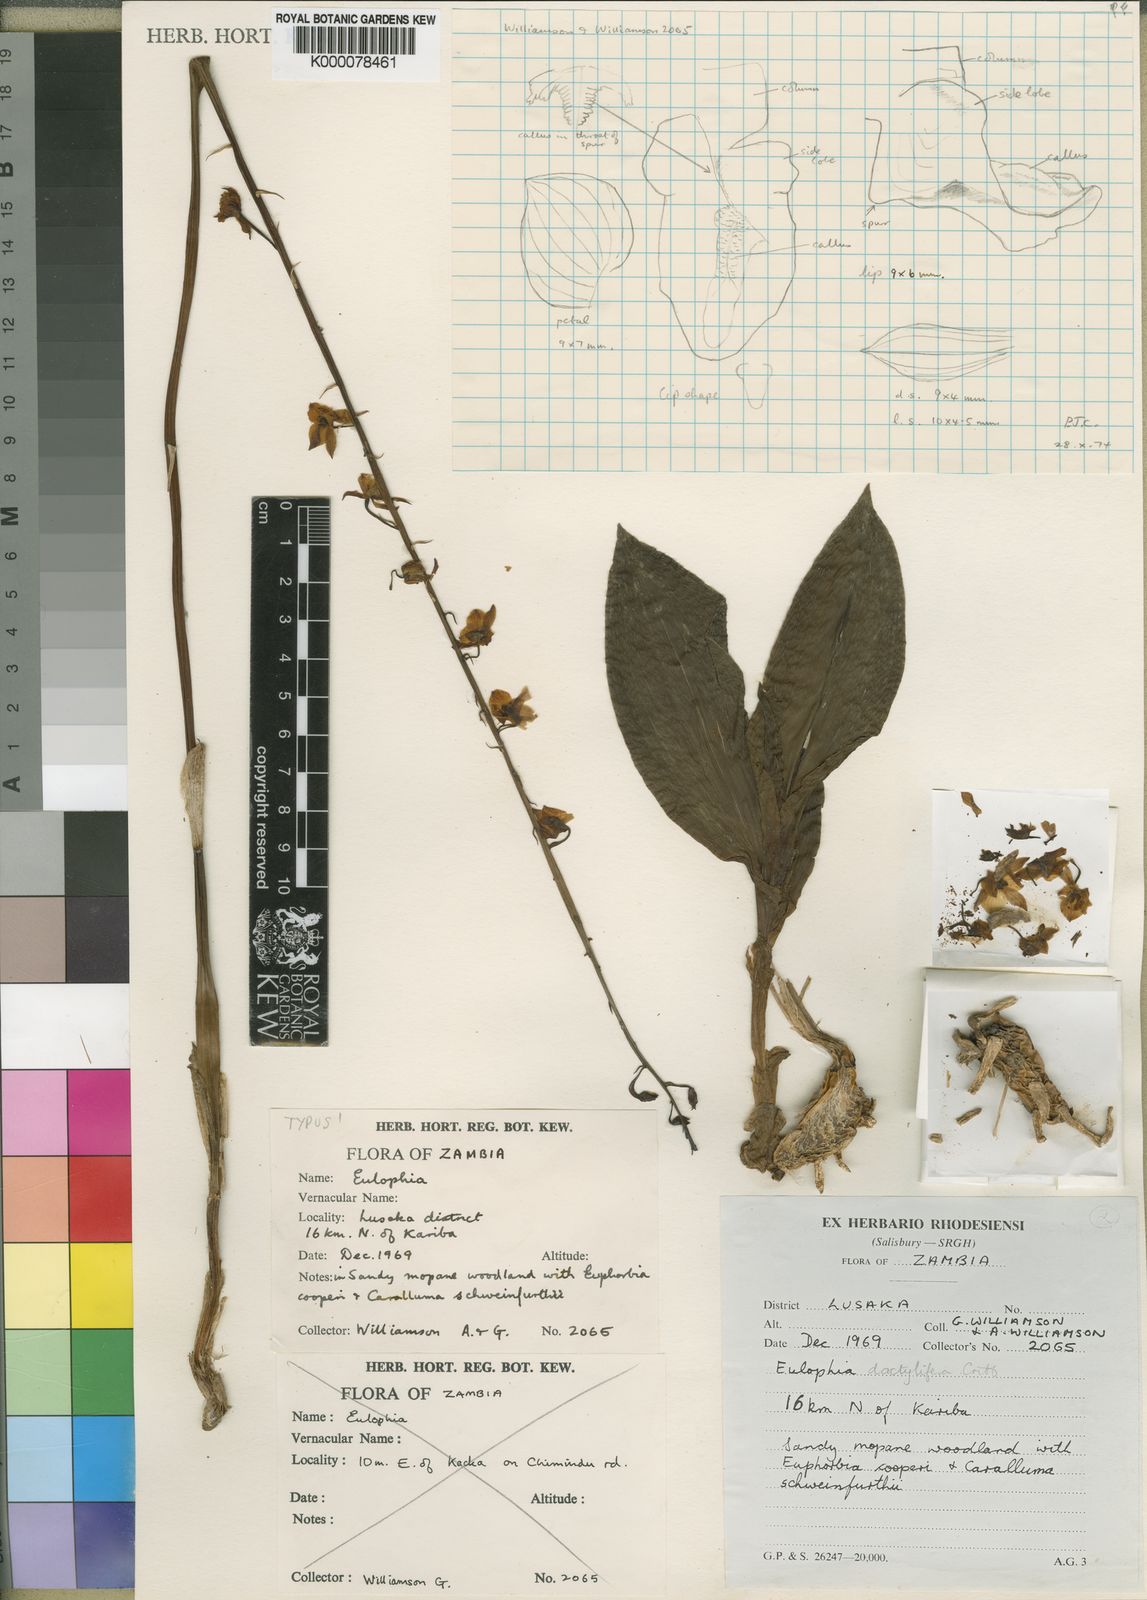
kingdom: Plantae
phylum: Tracheophyta
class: Liliopsida
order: Asparagales
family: Orchidaceae
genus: Eulophia
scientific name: Eulophia dactylifera
